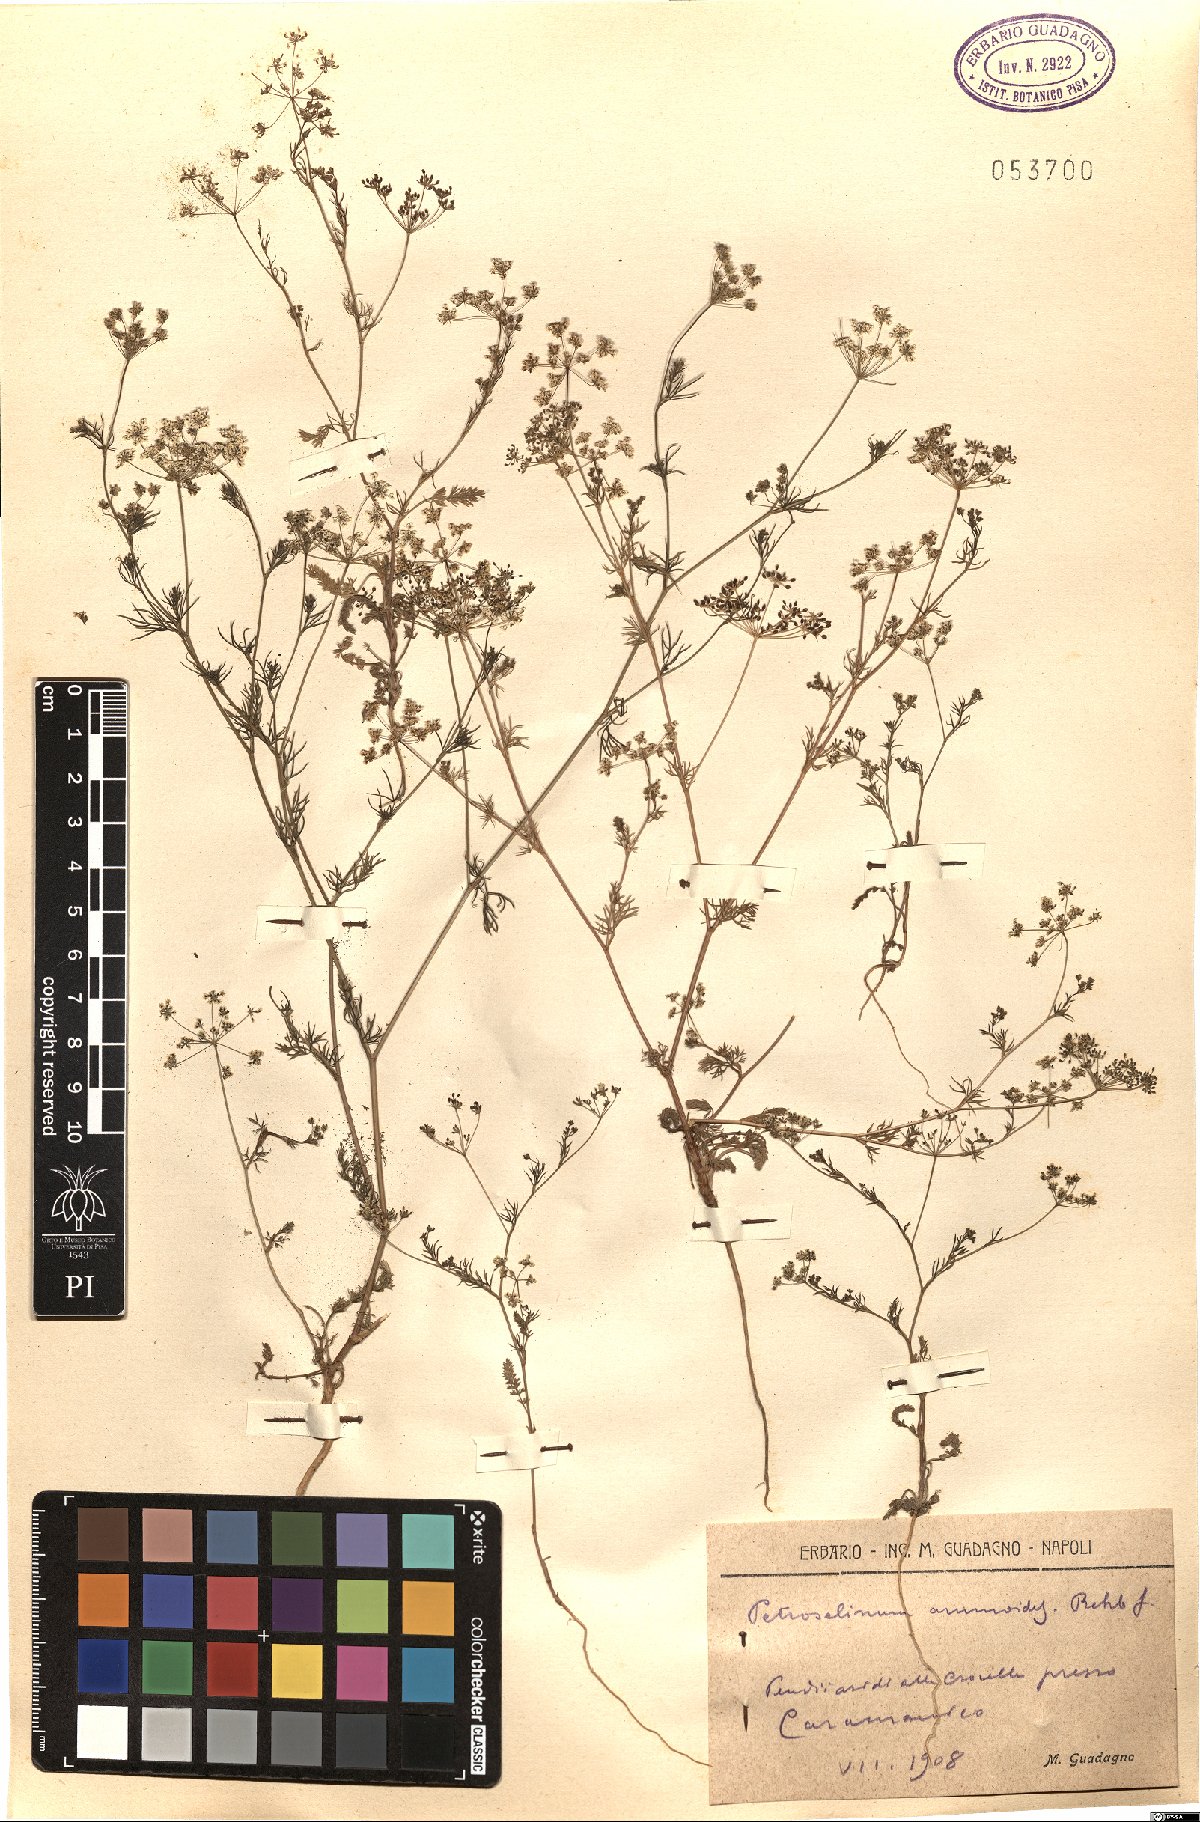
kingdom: Plantae
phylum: Tracheophyta
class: Magnoliopsida
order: Apiales
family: Apiaceae
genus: Ammoides
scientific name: Ammoides pusilla
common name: Cerfolium
